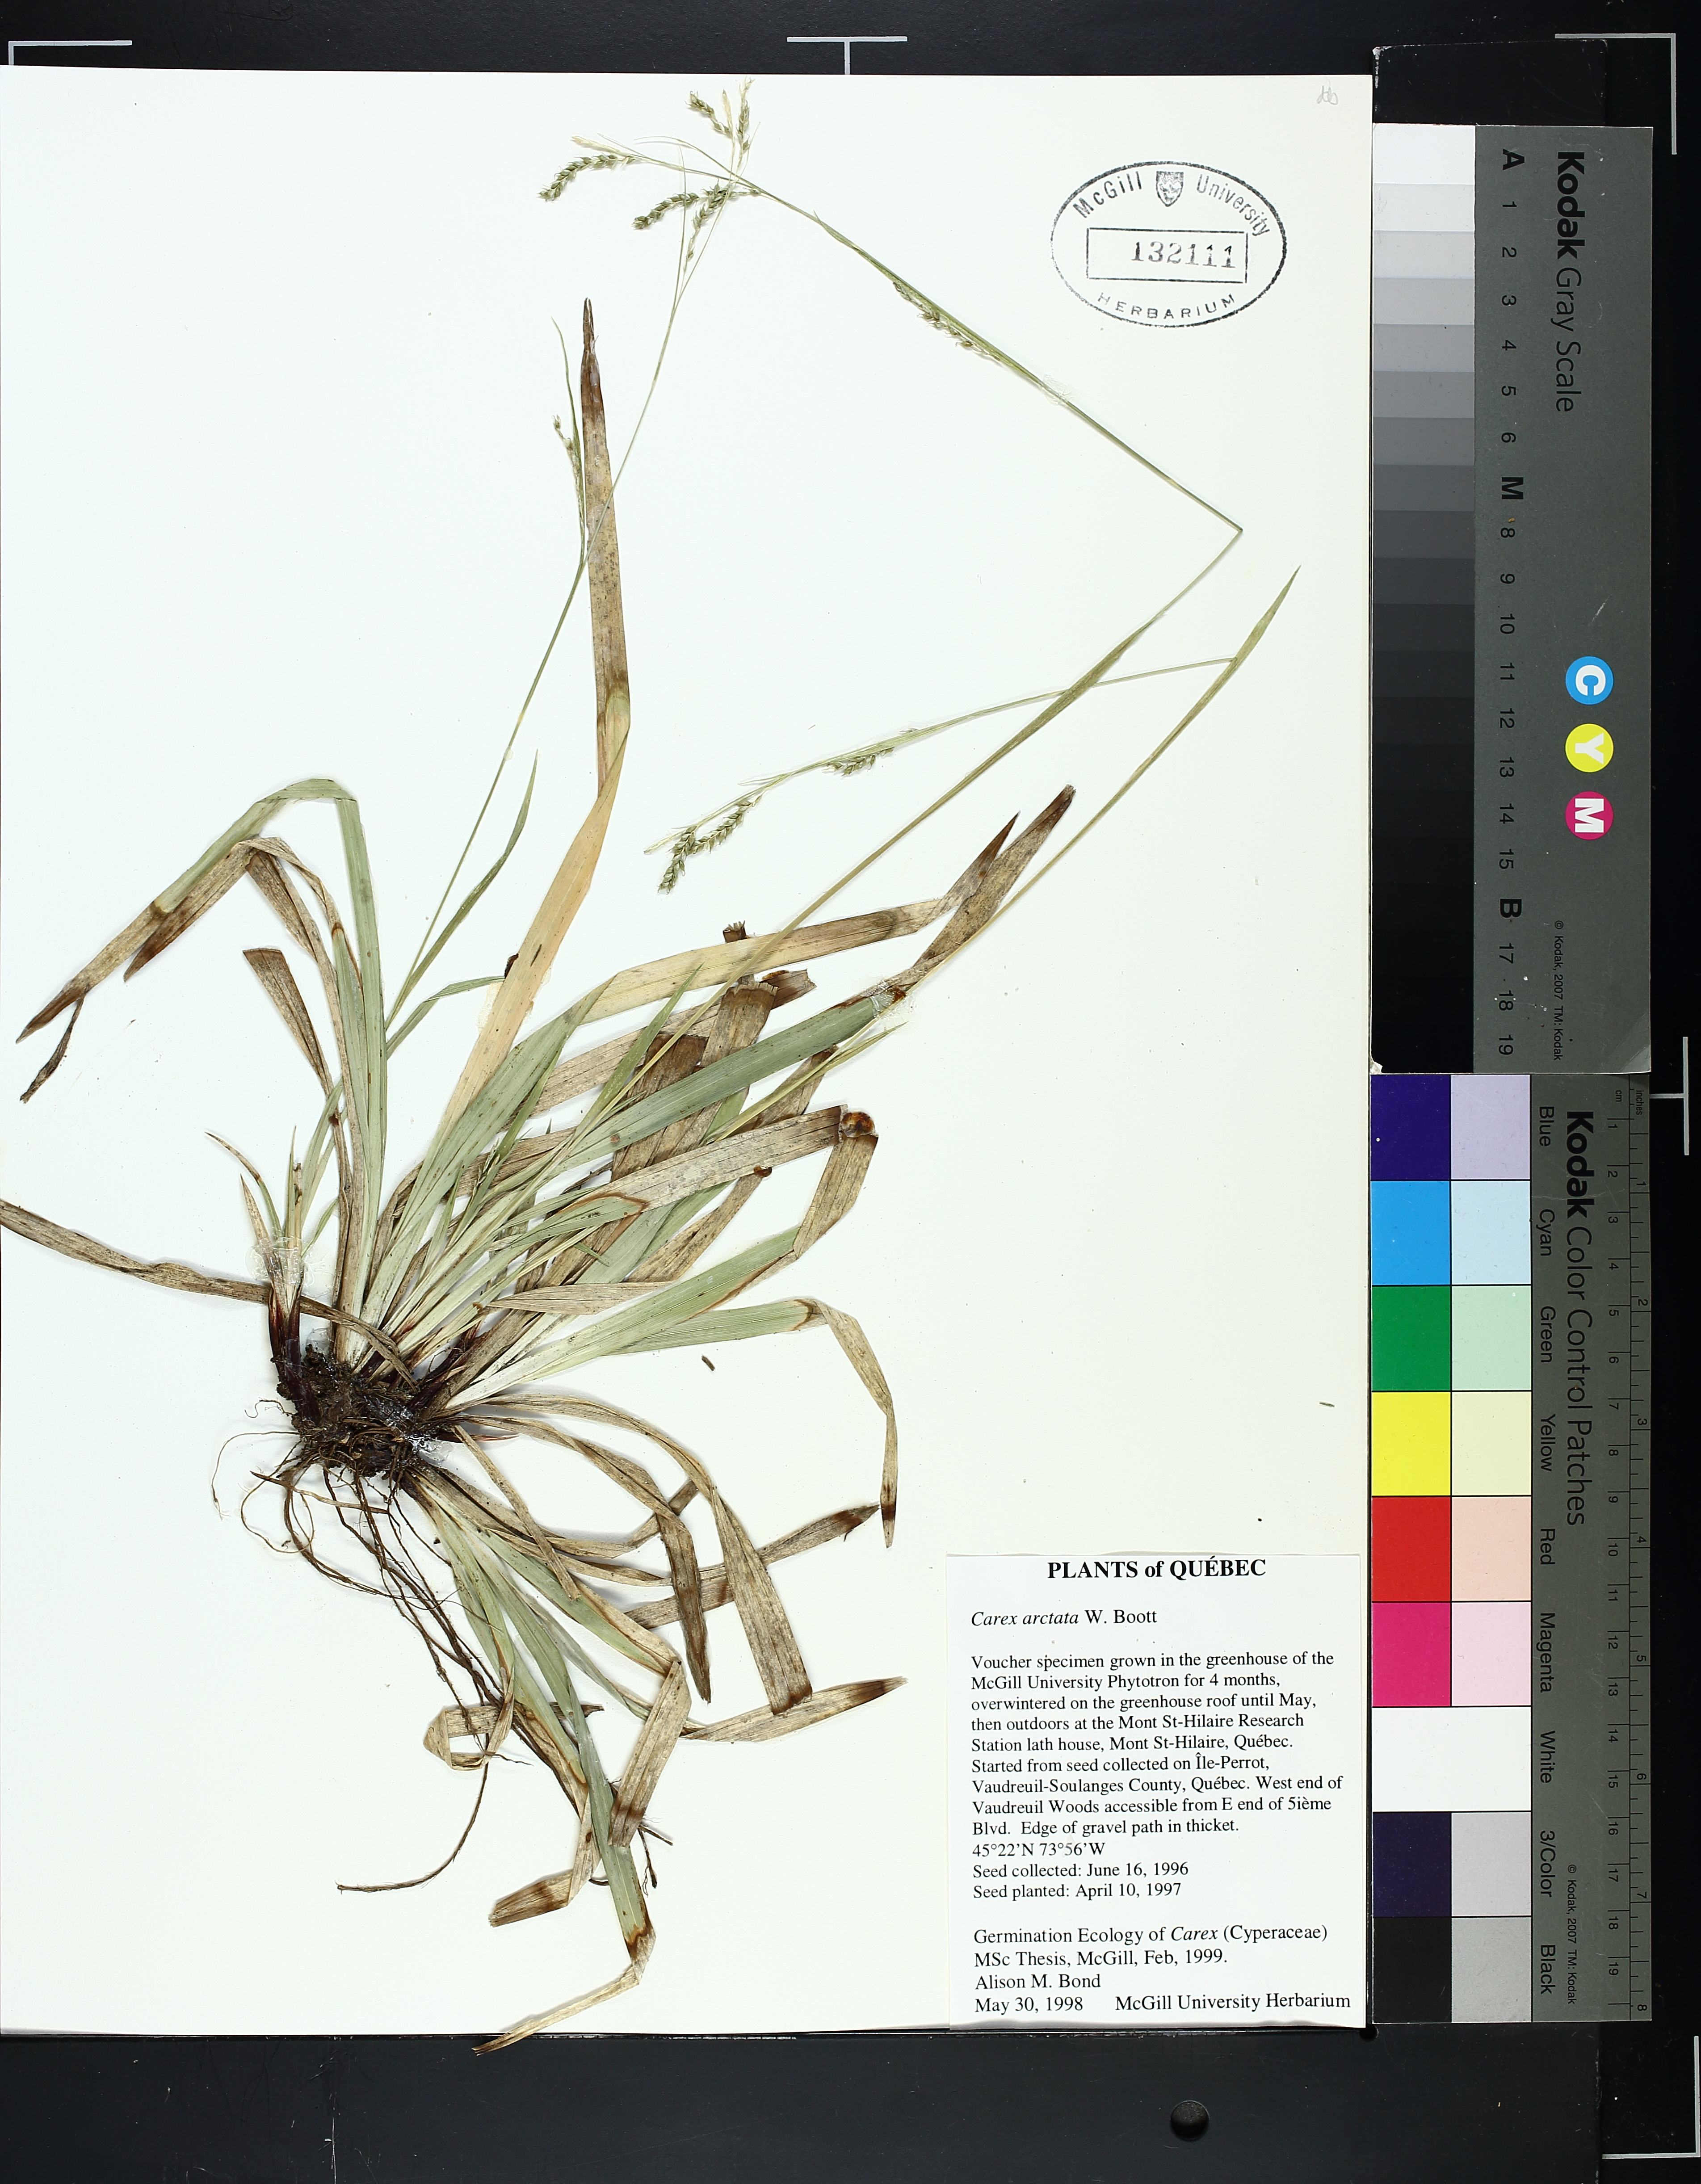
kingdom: Plantae
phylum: Tracheophyta
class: Liliopsida
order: Poales
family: Cyperaceae
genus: Carex
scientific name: Carex arctata
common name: Black sedge
